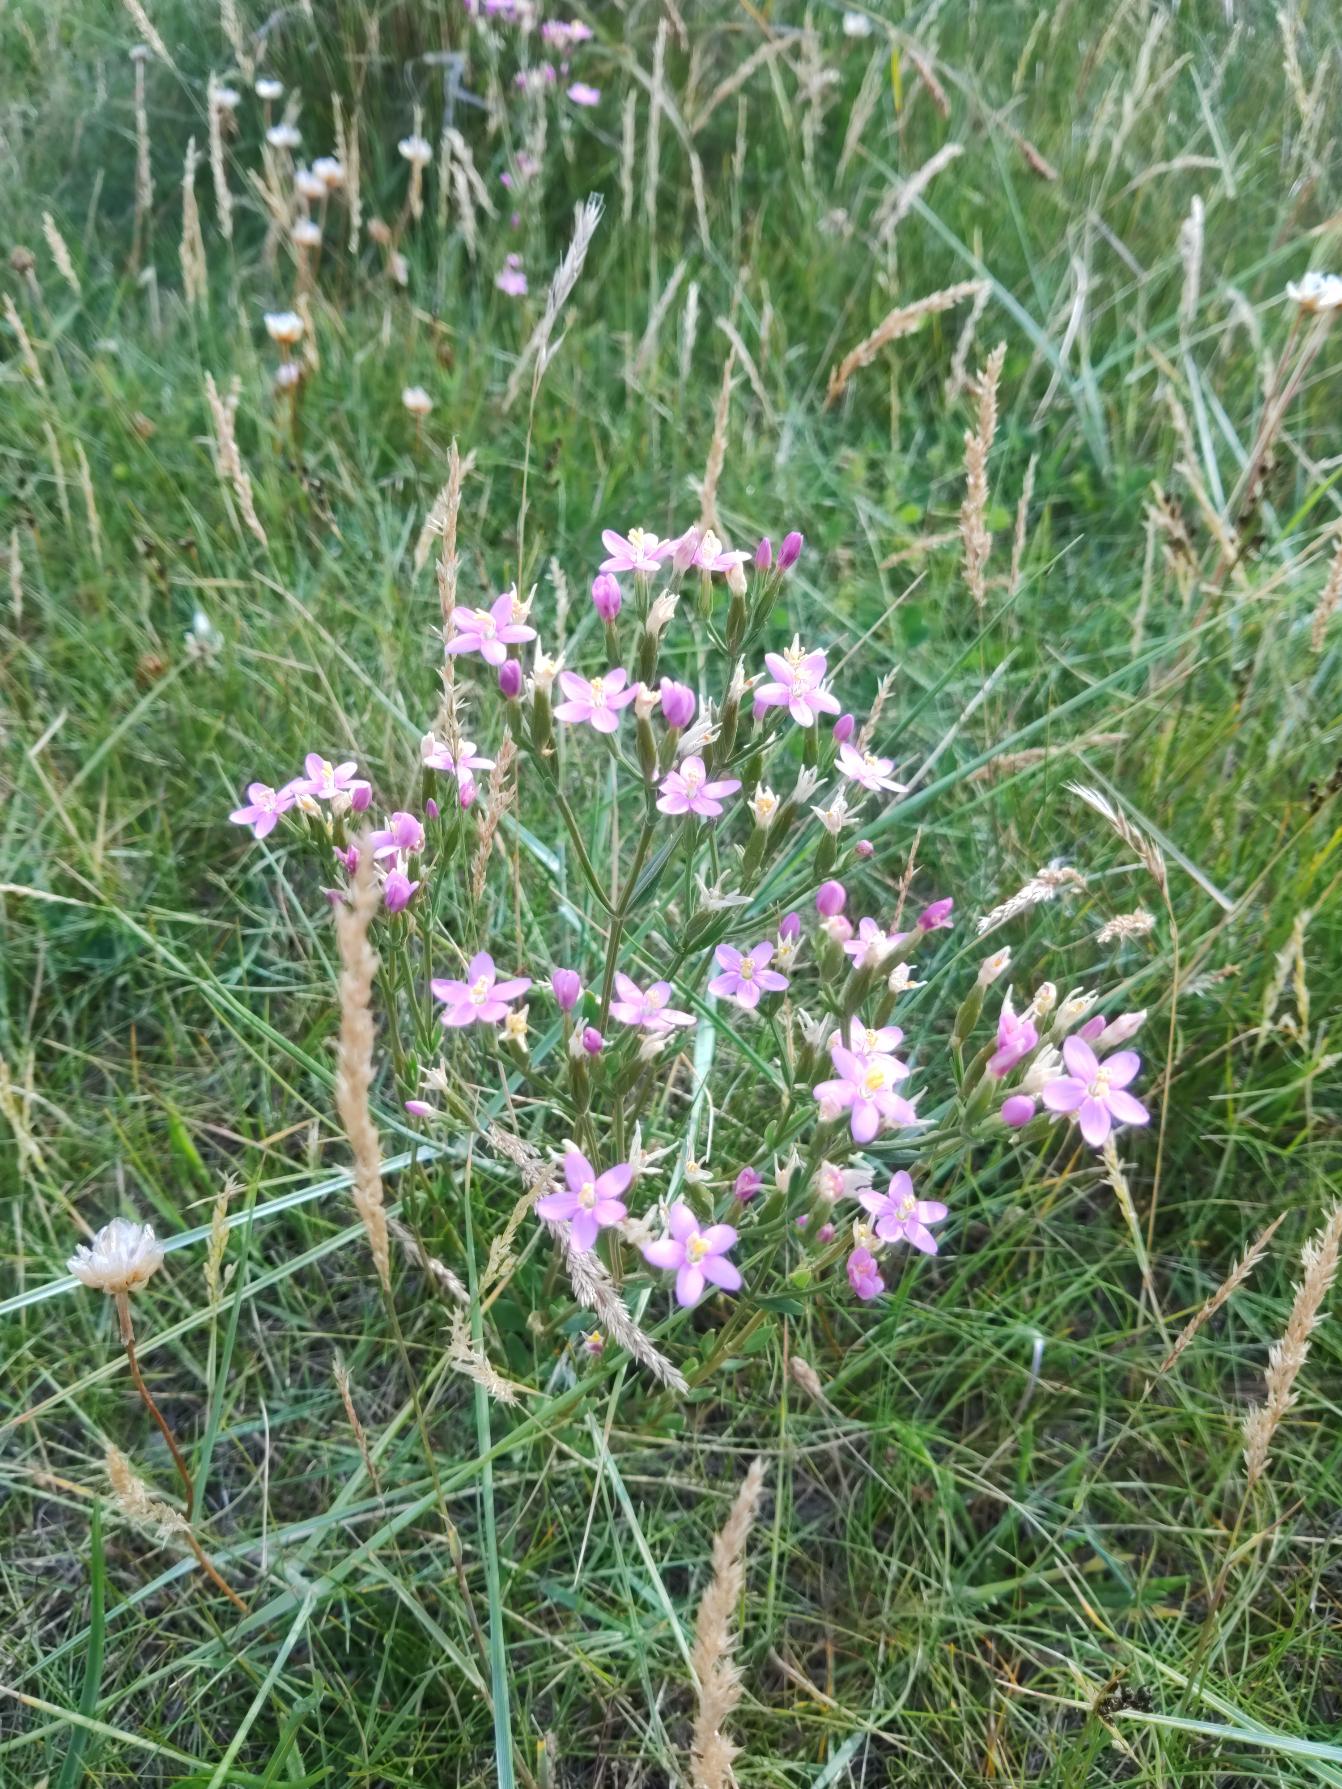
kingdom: Plantae
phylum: Tracheophyta
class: Magnoliopsida
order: Gentianales
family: Gentianaceae
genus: Centaurium
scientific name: Centaurium littorale
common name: Strand-tusindgylden
